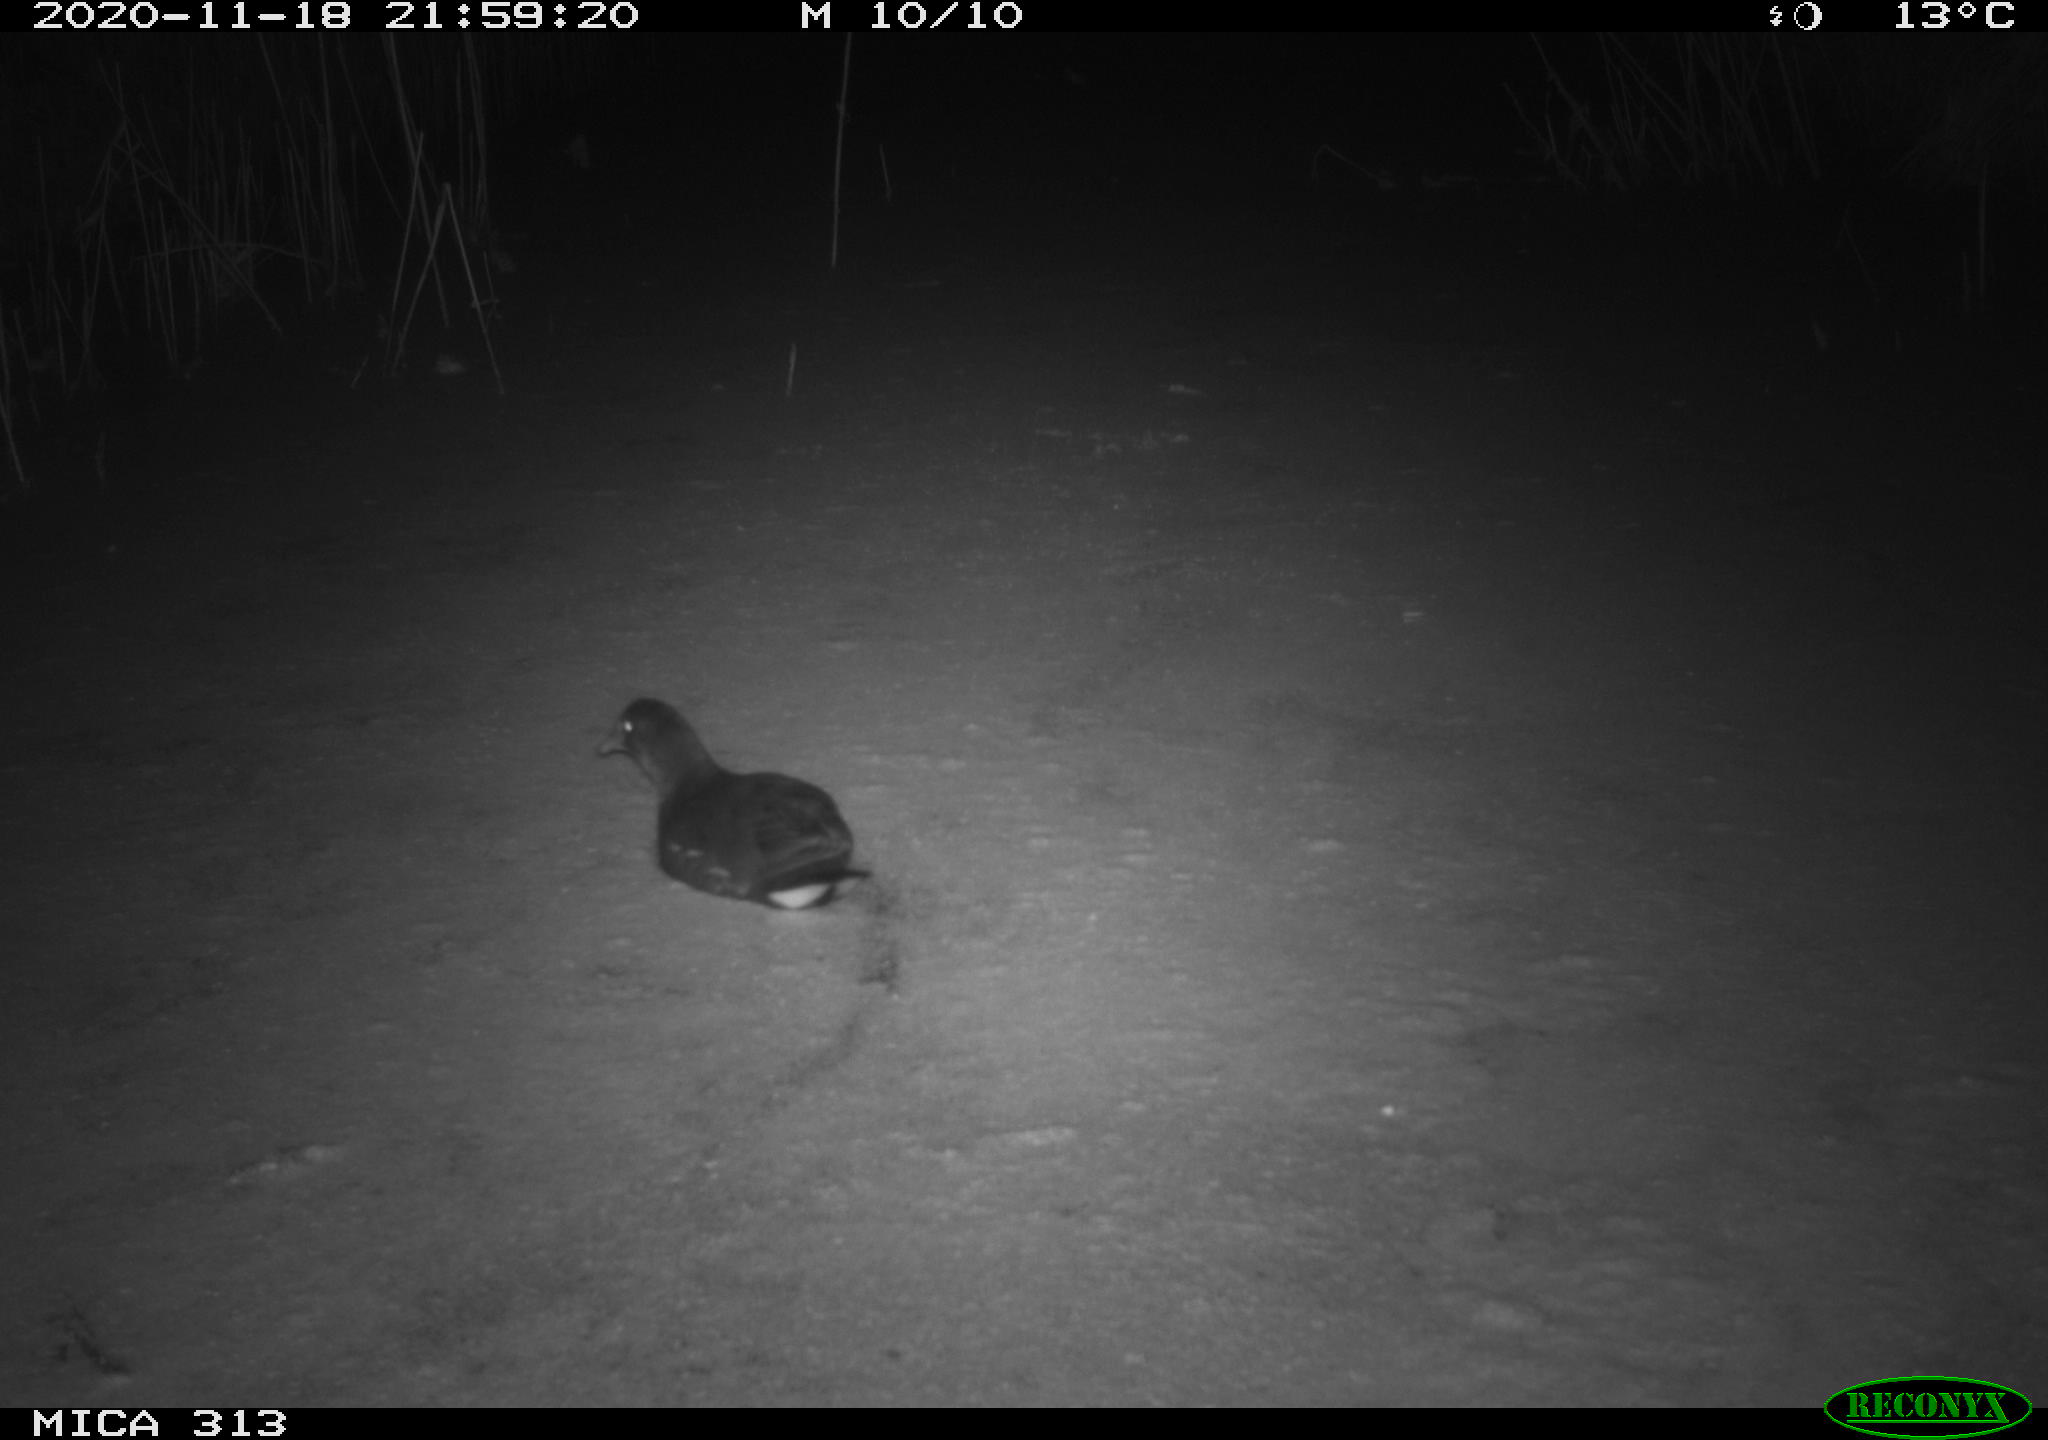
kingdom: Animalia
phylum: Chordata
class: Aves
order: Gruiformes
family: Rallidae
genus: Gallinula
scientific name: Gallinula chloropus
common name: Common moorhen
